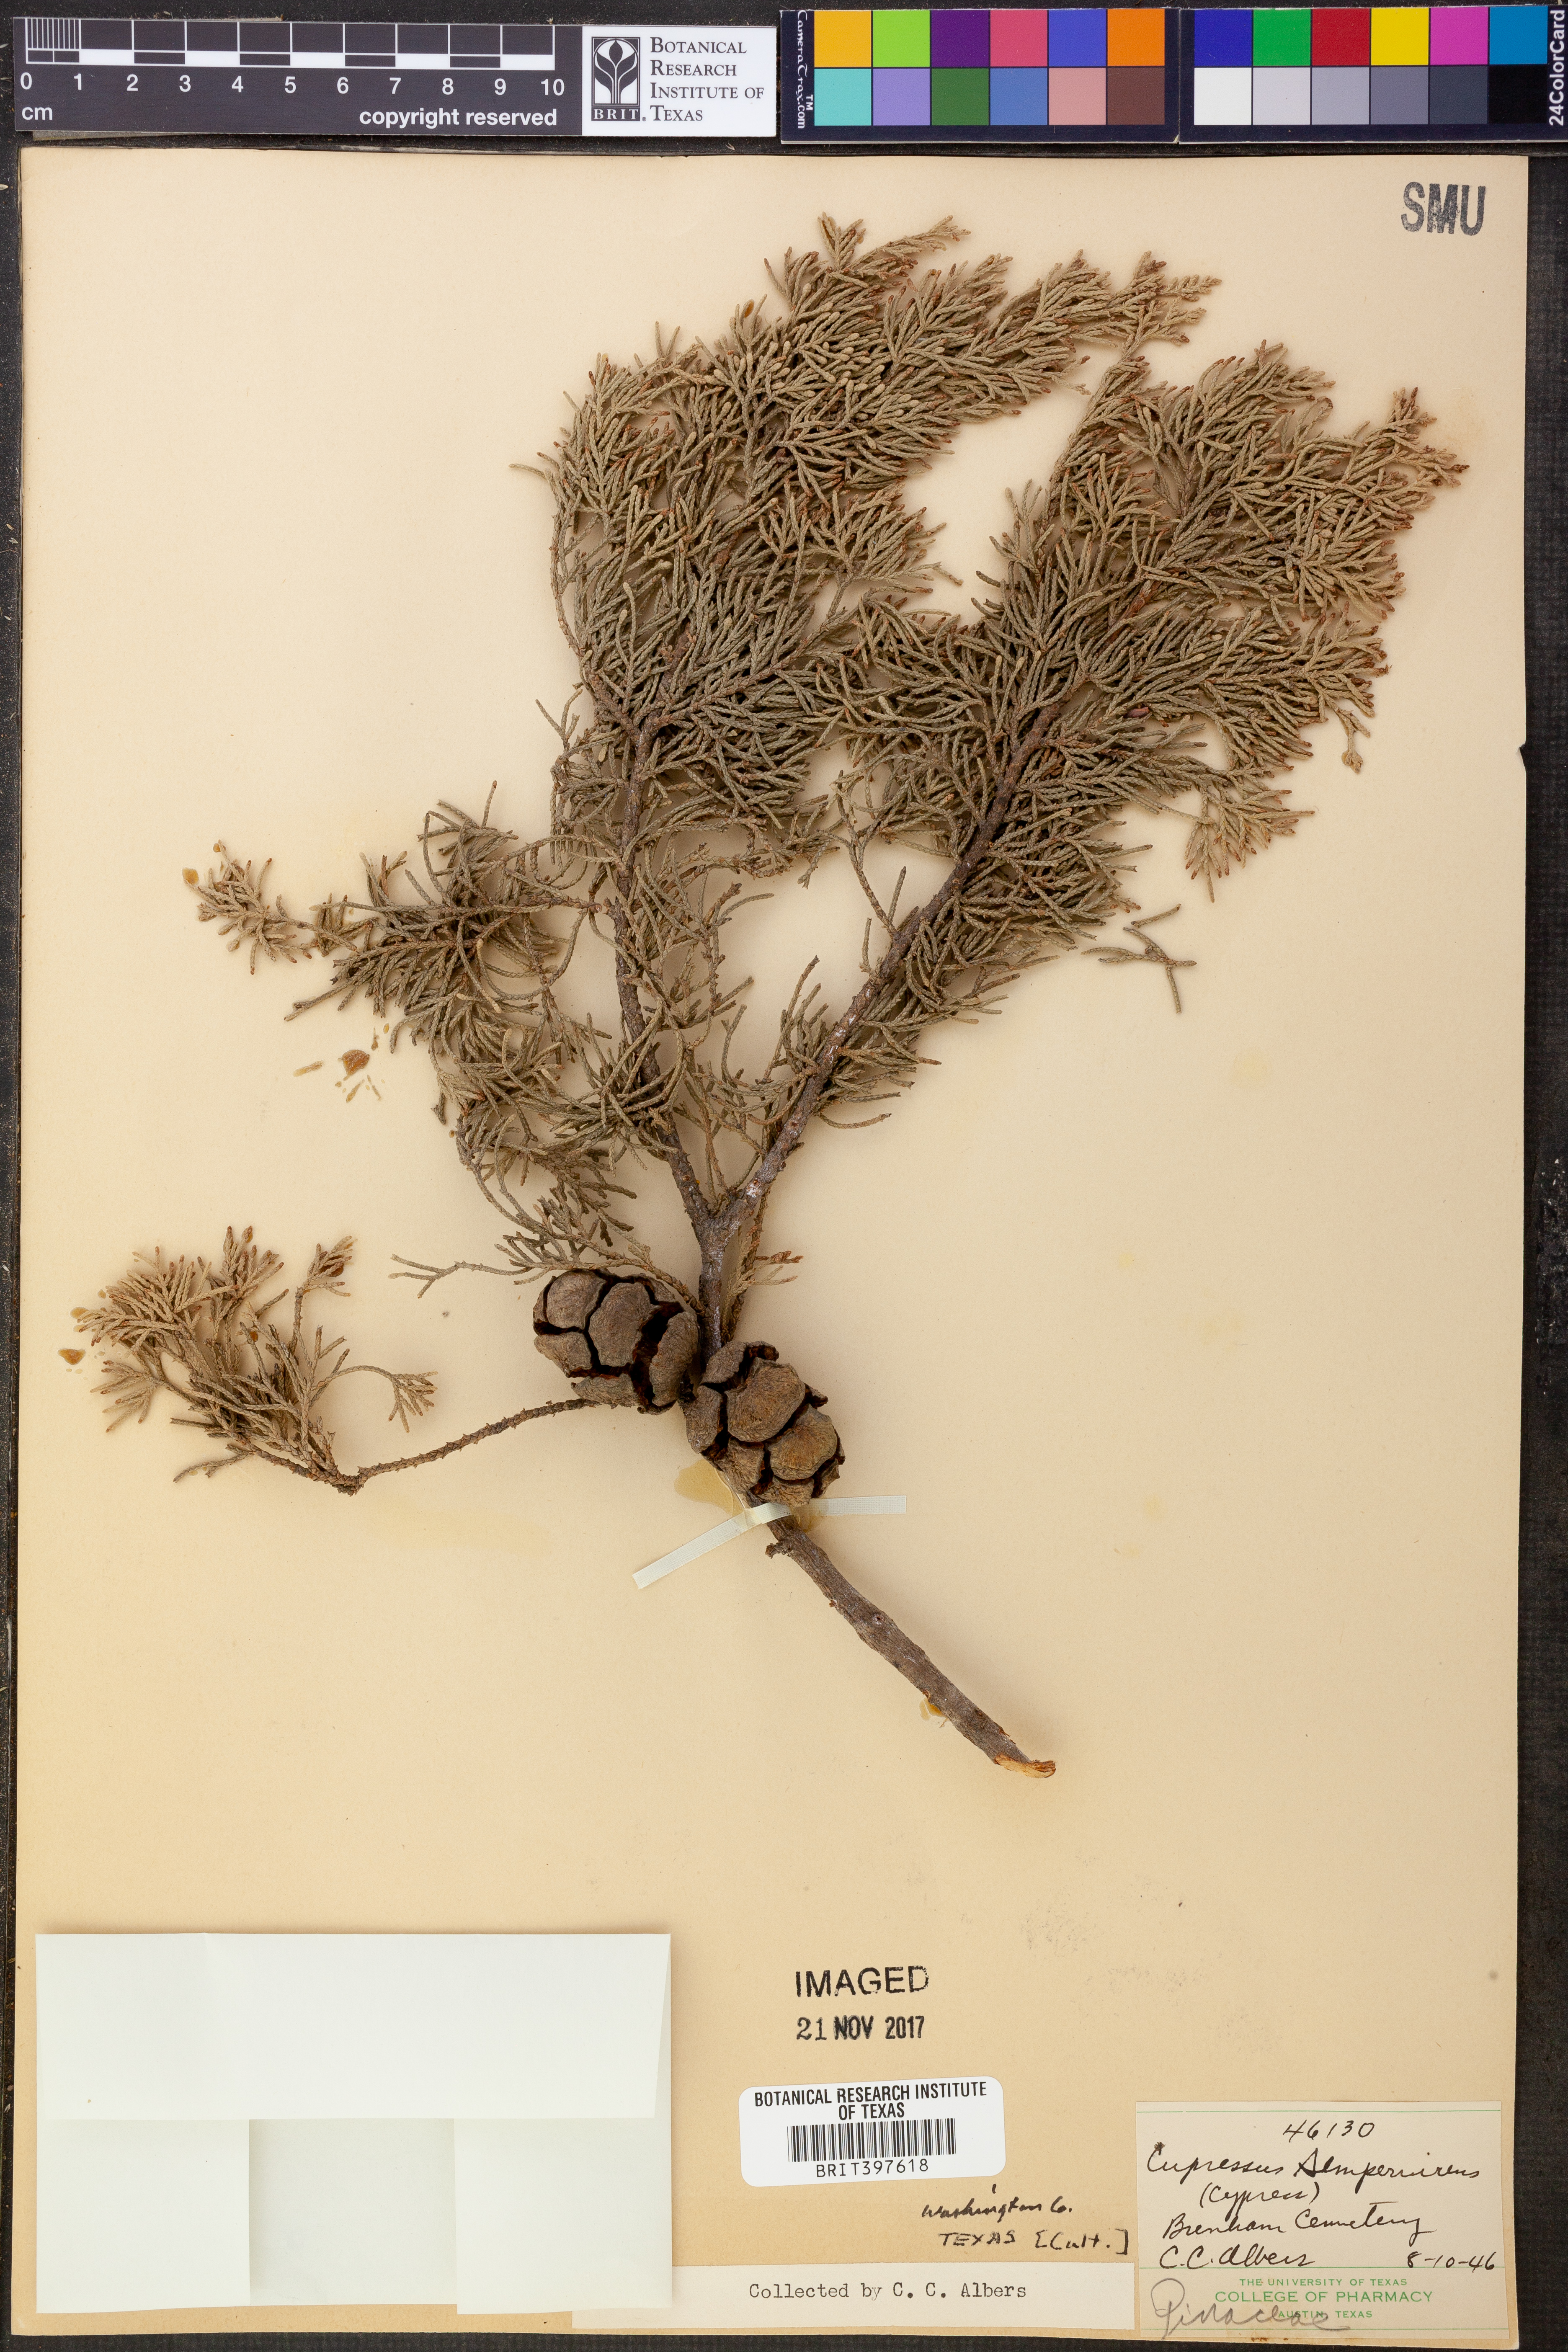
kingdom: Plantae
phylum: Tracheophyta
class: Pinopsida
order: Pinales
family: Cupressaceae
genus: Cupressus
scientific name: Cupressus sempervirens
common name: Italian cypress
